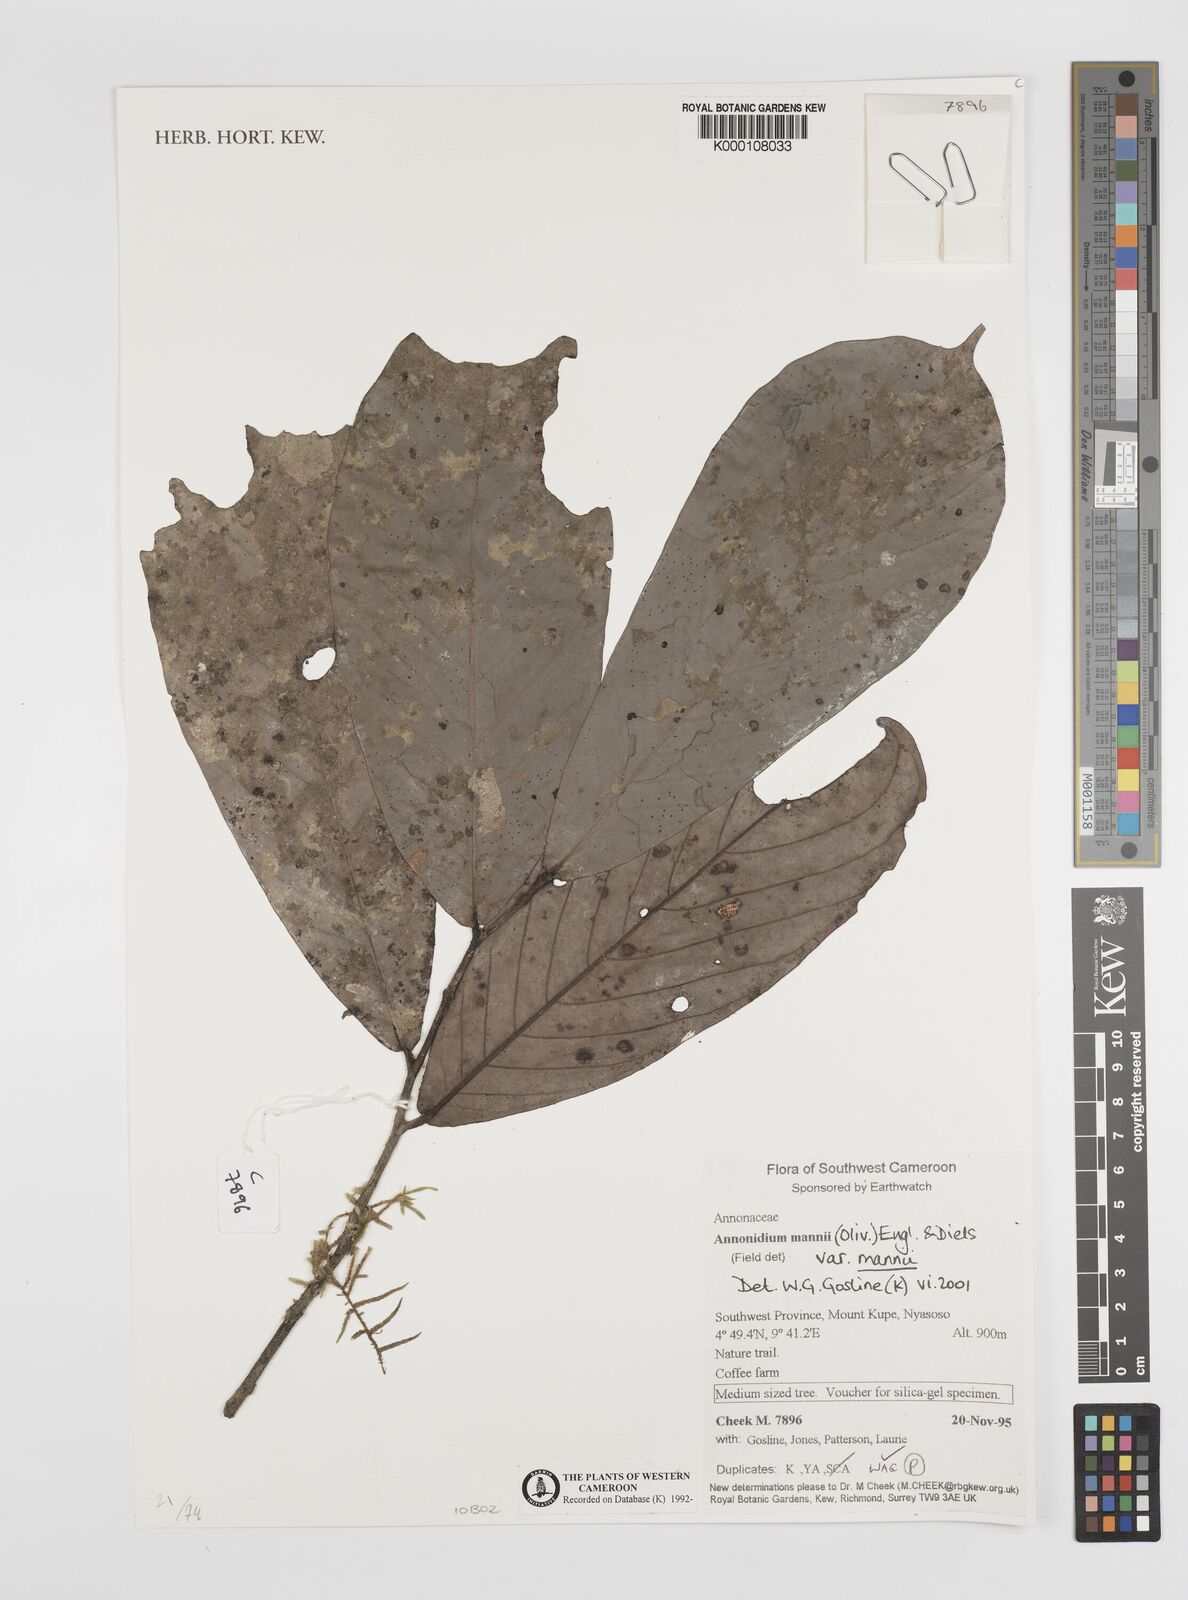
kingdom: Plantae
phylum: Tracheophyta
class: Magnoliopsida
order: Magnoliales
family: Annonaceae
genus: Anonidium
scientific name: Anonidium mannii
